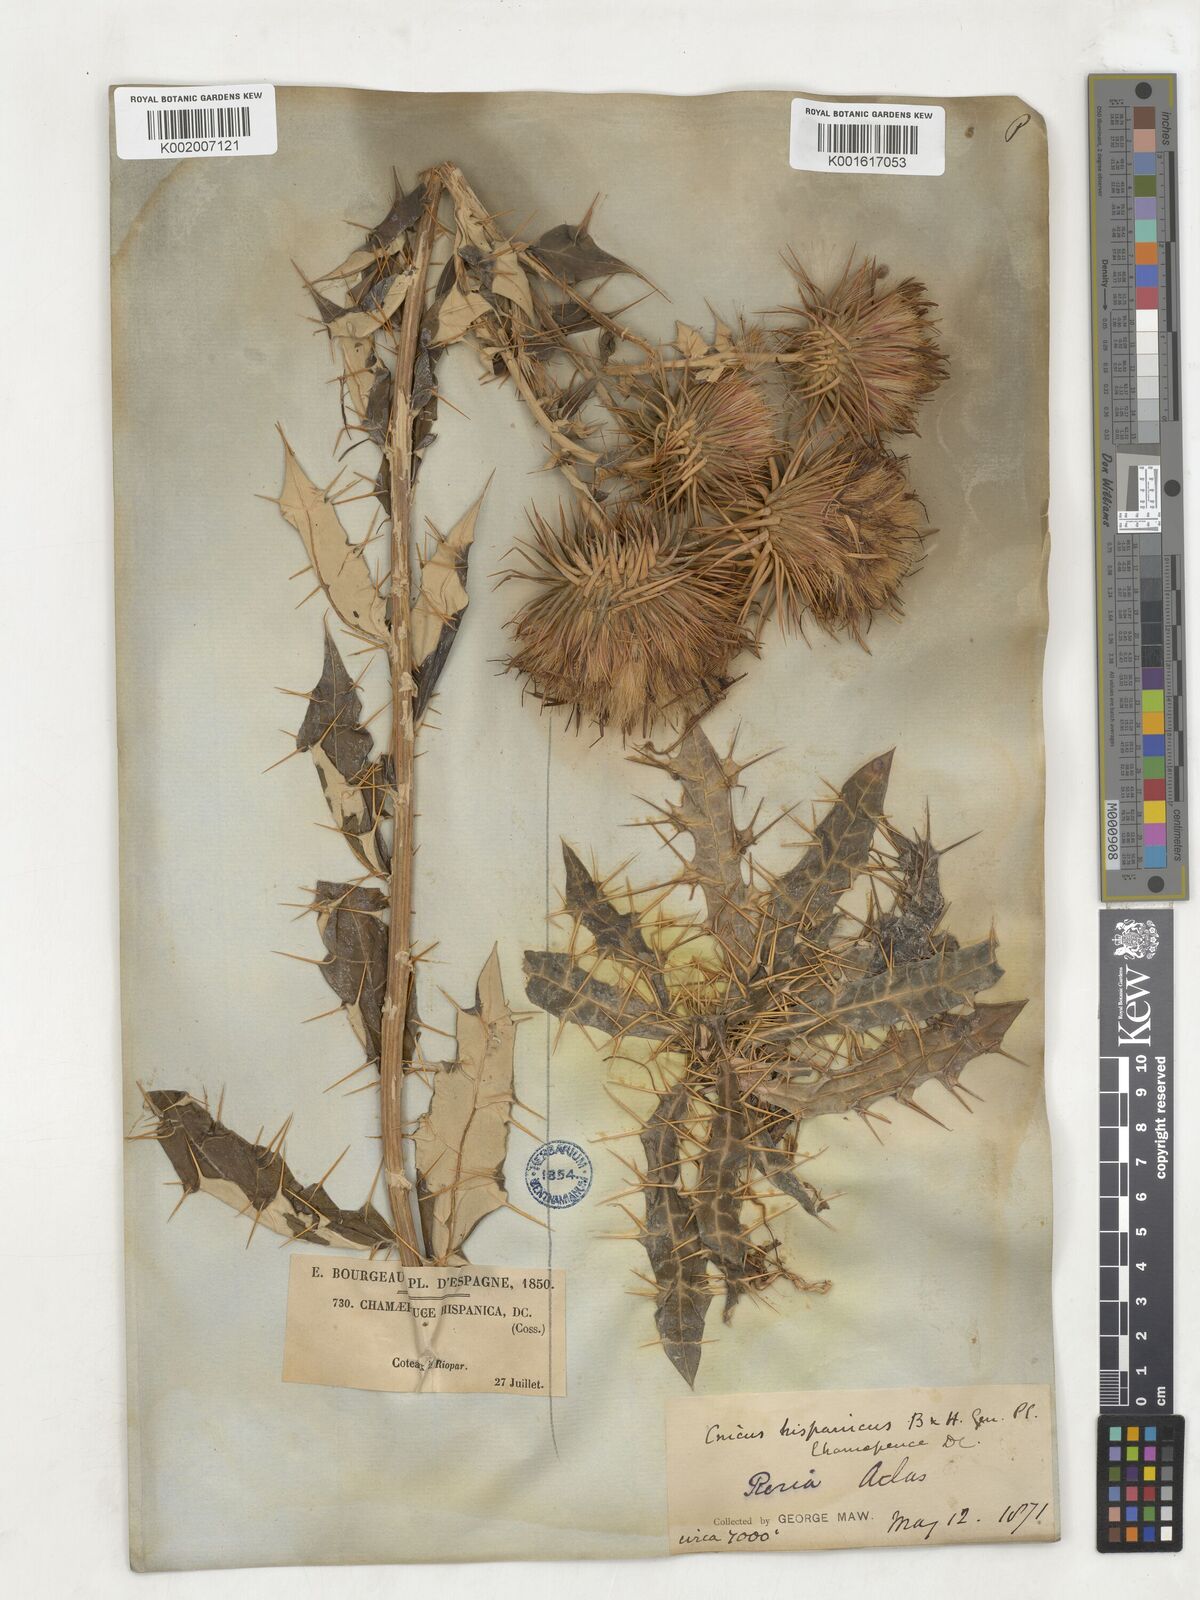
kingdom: Plantae
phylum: Tracheophyta
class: Magnoliopsida
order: Asterales
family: Asteraceae
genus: Ptilostemon
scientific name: Ptilostemon hispanicus
